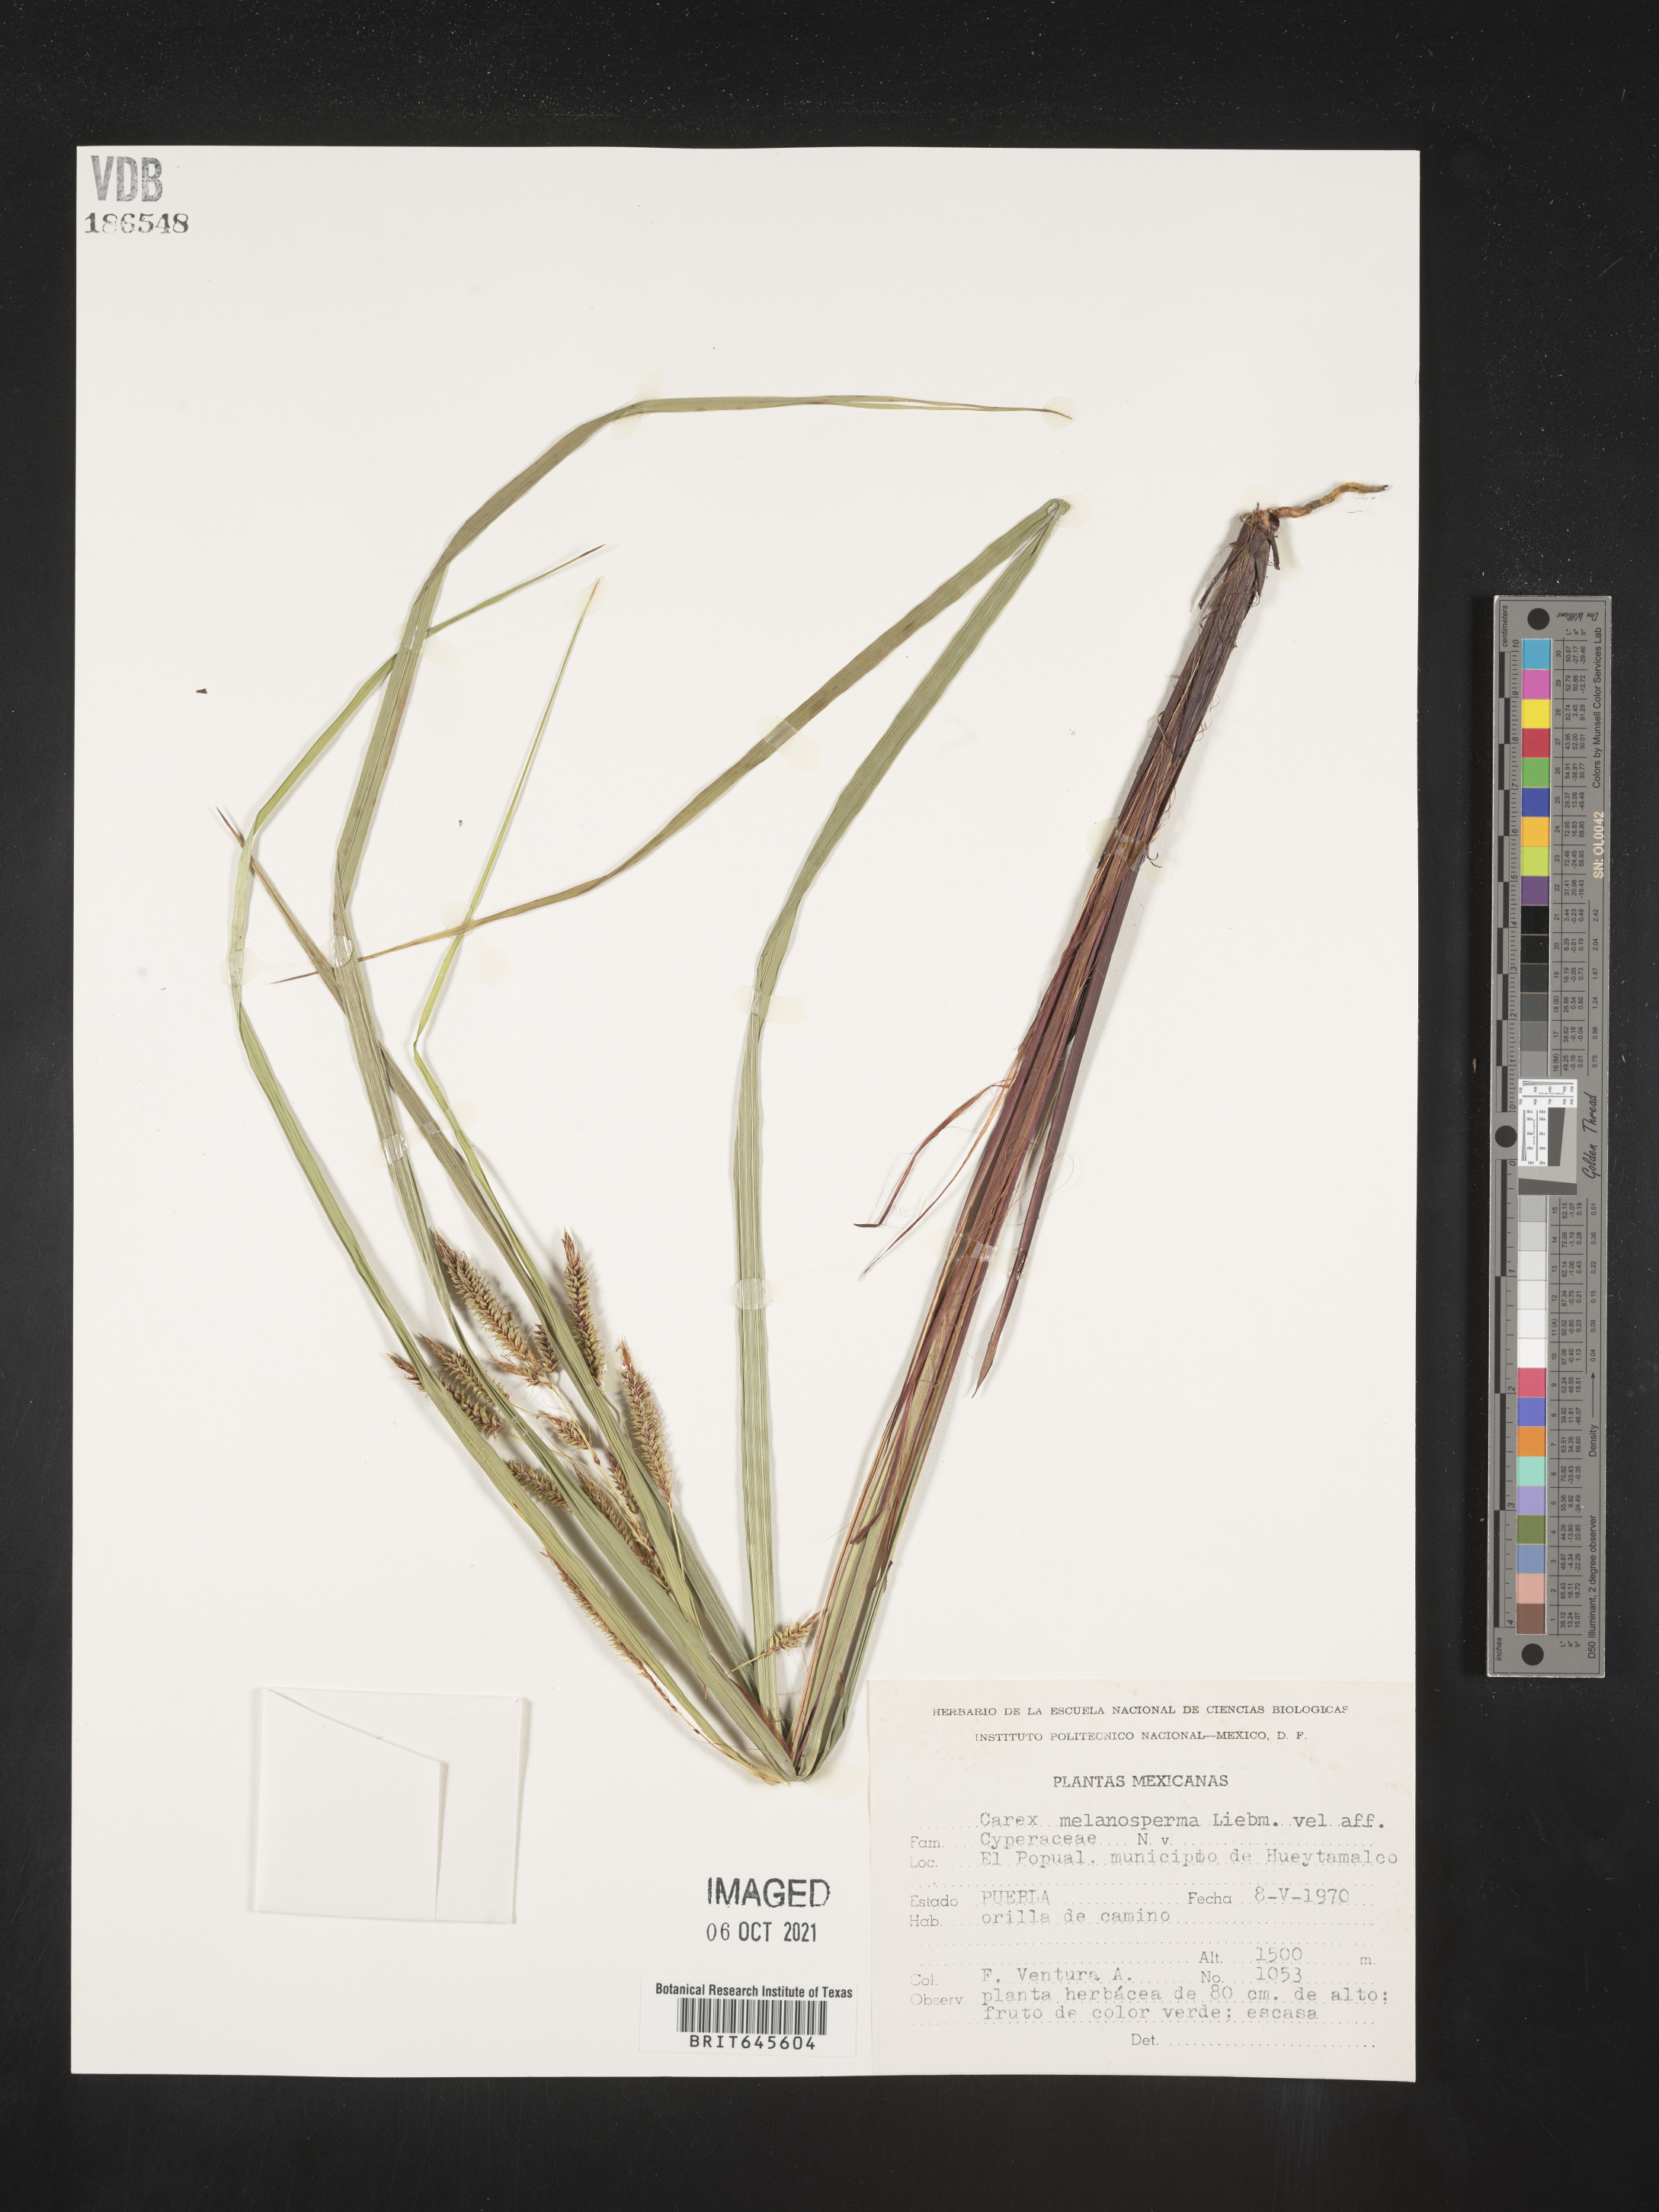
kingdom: Plantae
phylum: Tracheophyta
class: Liliopsida
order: Poales
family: Cyperaceae
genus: Carex
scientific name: Carex
